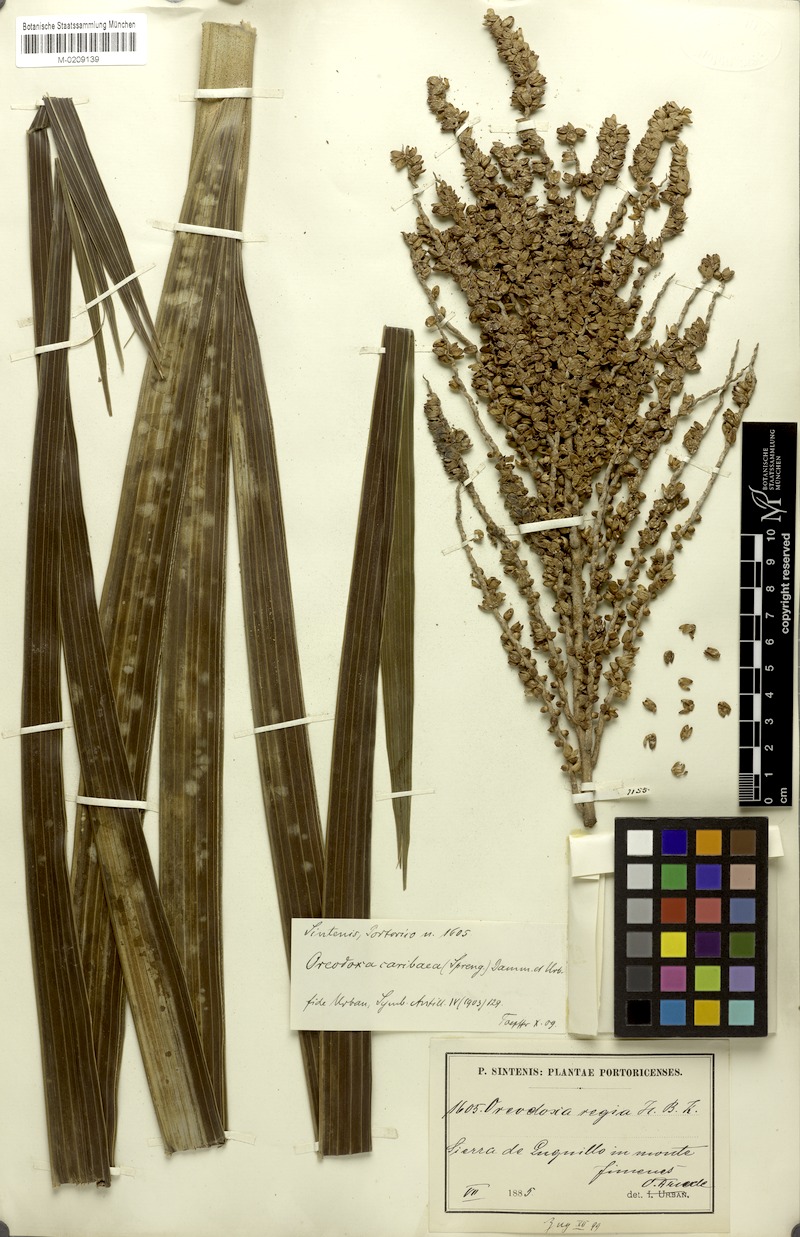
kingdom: Plantae
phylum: Tracheophyta
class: Liliopsida
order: Arecales
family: Arecaceae
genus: Roystonea
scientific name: Roystonea oleracea
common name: South american royal palm
